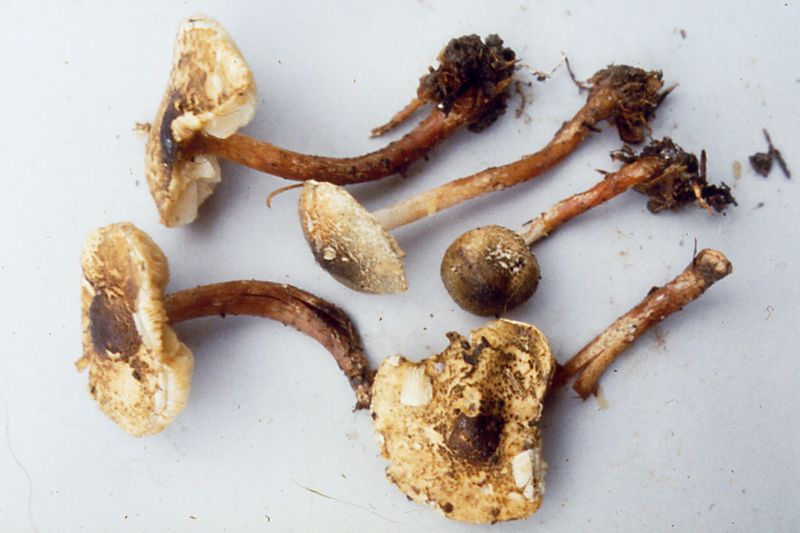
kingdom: Fungi
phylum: Basidiomycota
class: Agaricomycetes
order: Agaricales
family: Agaricaceae
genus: Lepiota
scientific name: Lepiota grangei
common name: grønskællet parasolhat
